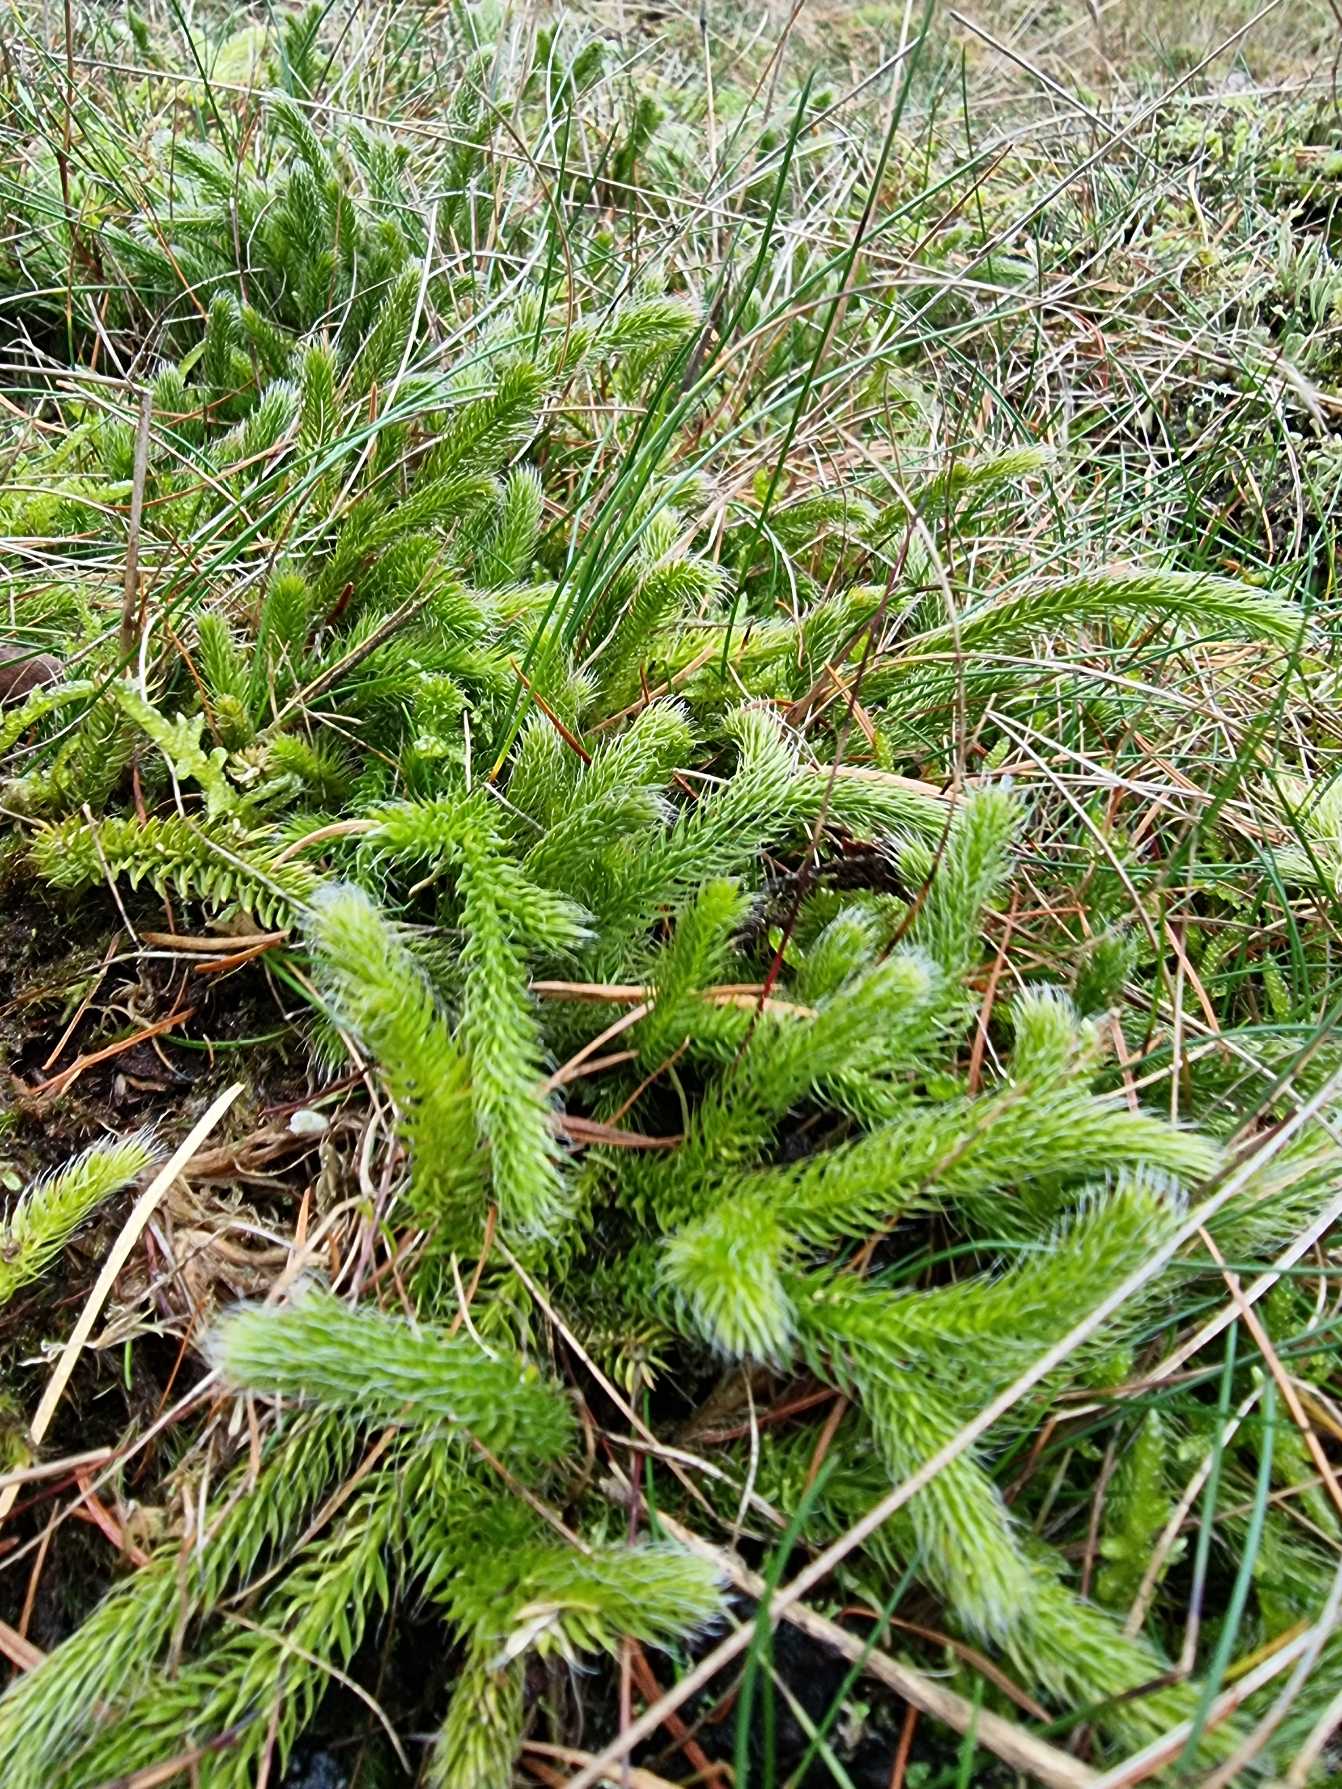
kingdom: Plantae
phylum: Tracheophyta
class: Lycopodiopsida
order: Lycopodiales
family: Lycopodiaceae
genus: Lycopodium
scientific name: Lycopodium clavatum
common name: Almindelig ulvefod
